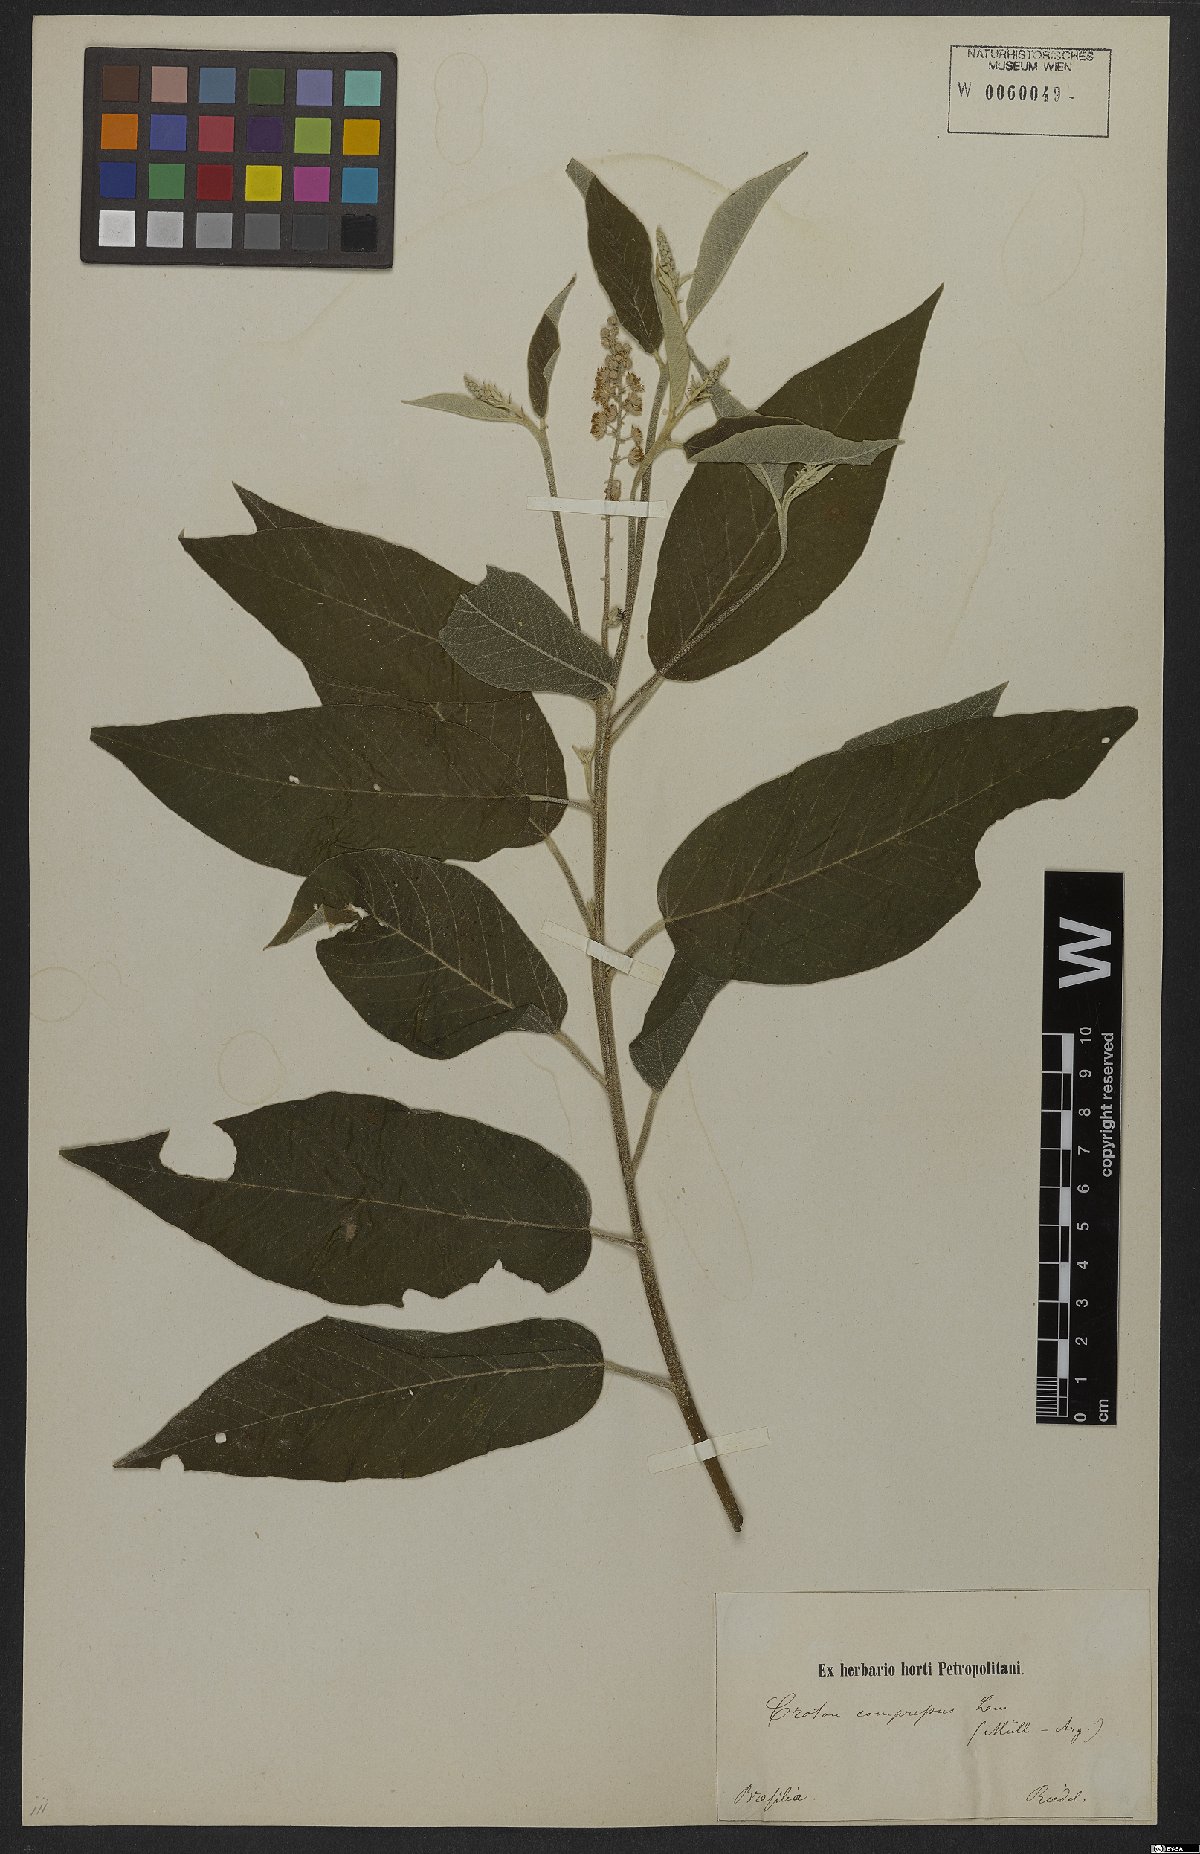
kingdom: Plantae
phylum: Tracheophyta
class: Magnoliopsida
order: Malpighiales
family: Euphorbiaceae
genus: Croton
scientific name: Croton compressus
